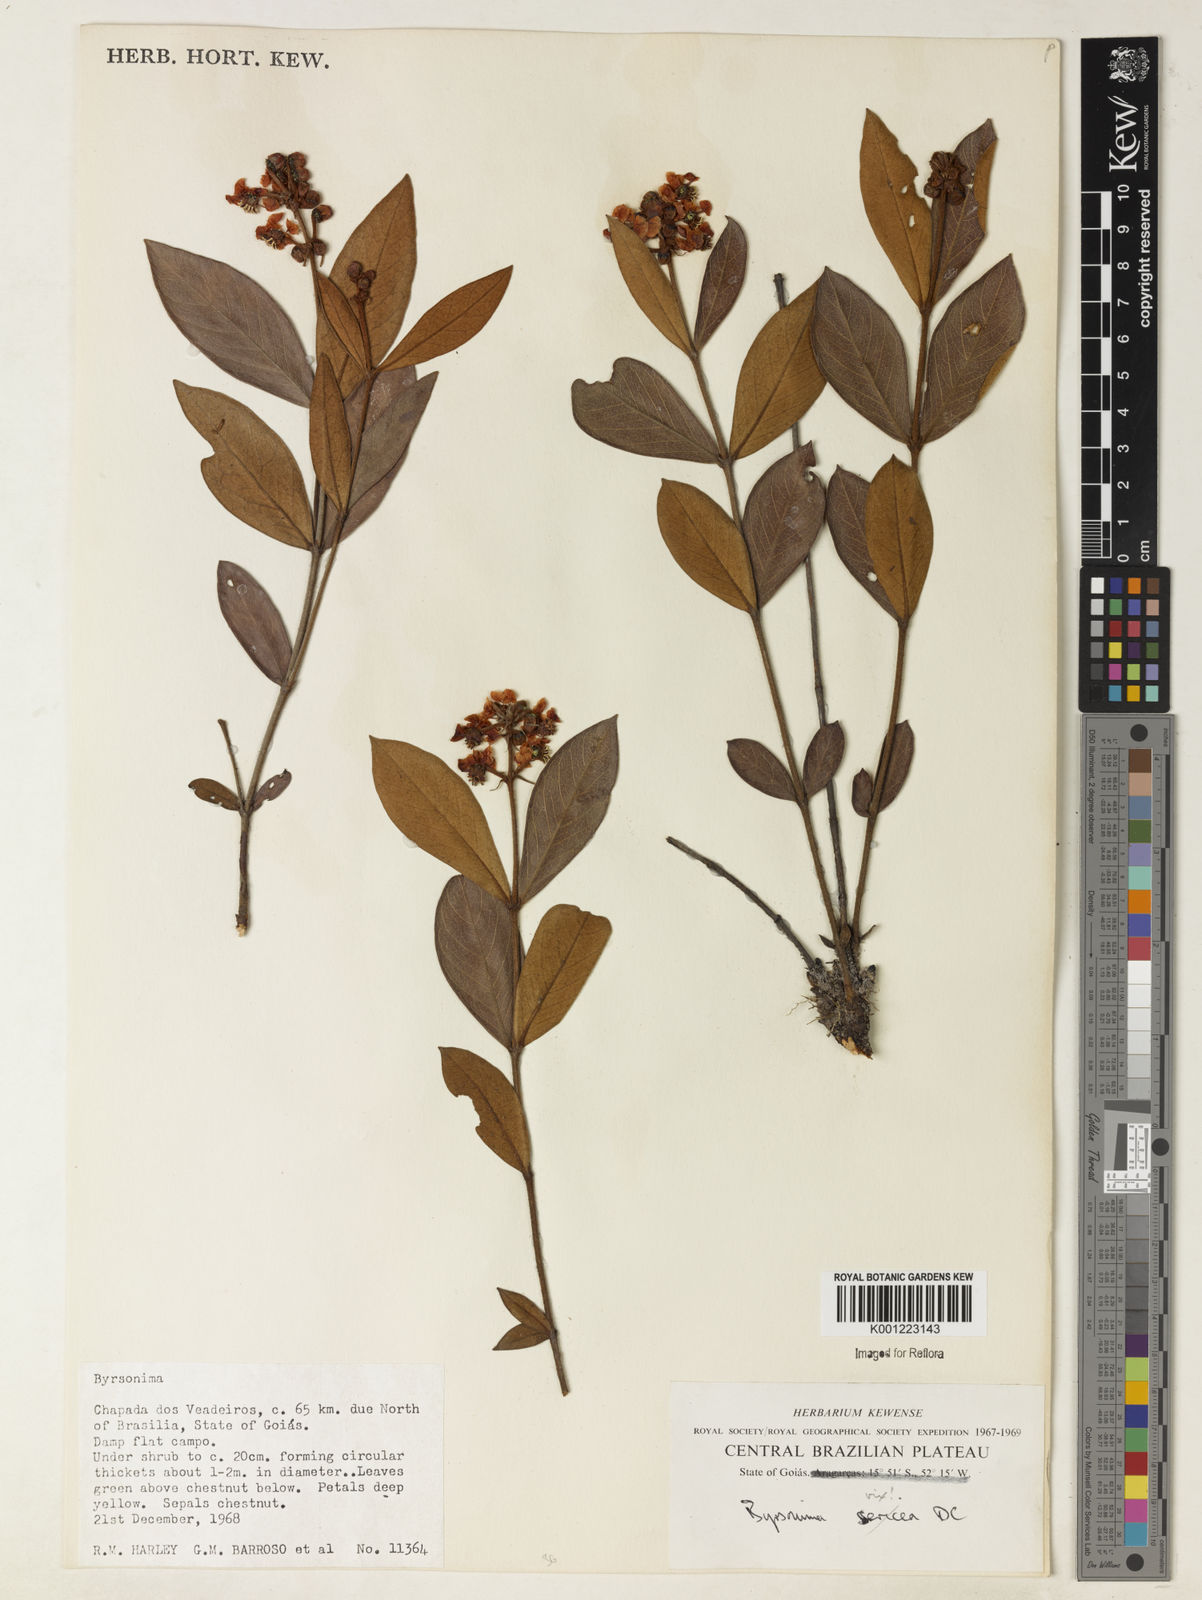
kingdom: Plantae
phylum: Tracheophyta
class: Magnoliopsida
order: Malpighiales
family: Malpighiaceae
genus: Byrsonima
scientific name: Byrsonima
